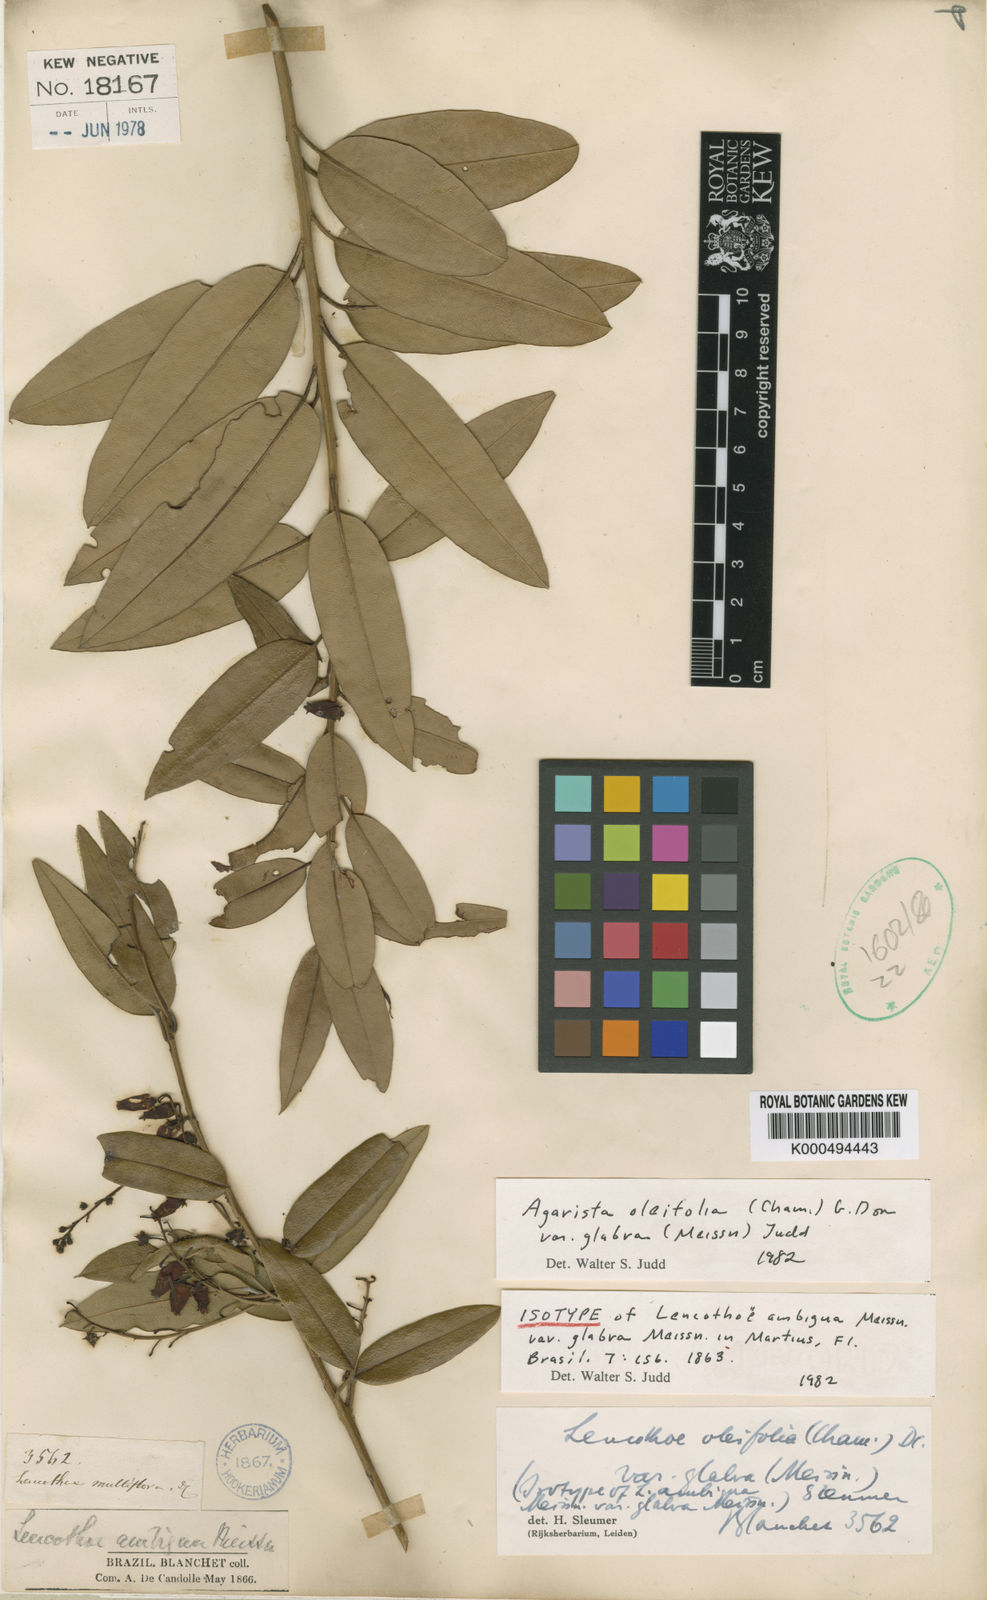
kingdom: Plantae
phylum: Tracheophyta
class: Magnoliopsida
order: Ericales
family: Ericaceae
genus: Agarista
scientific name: Agarista oleifolia
